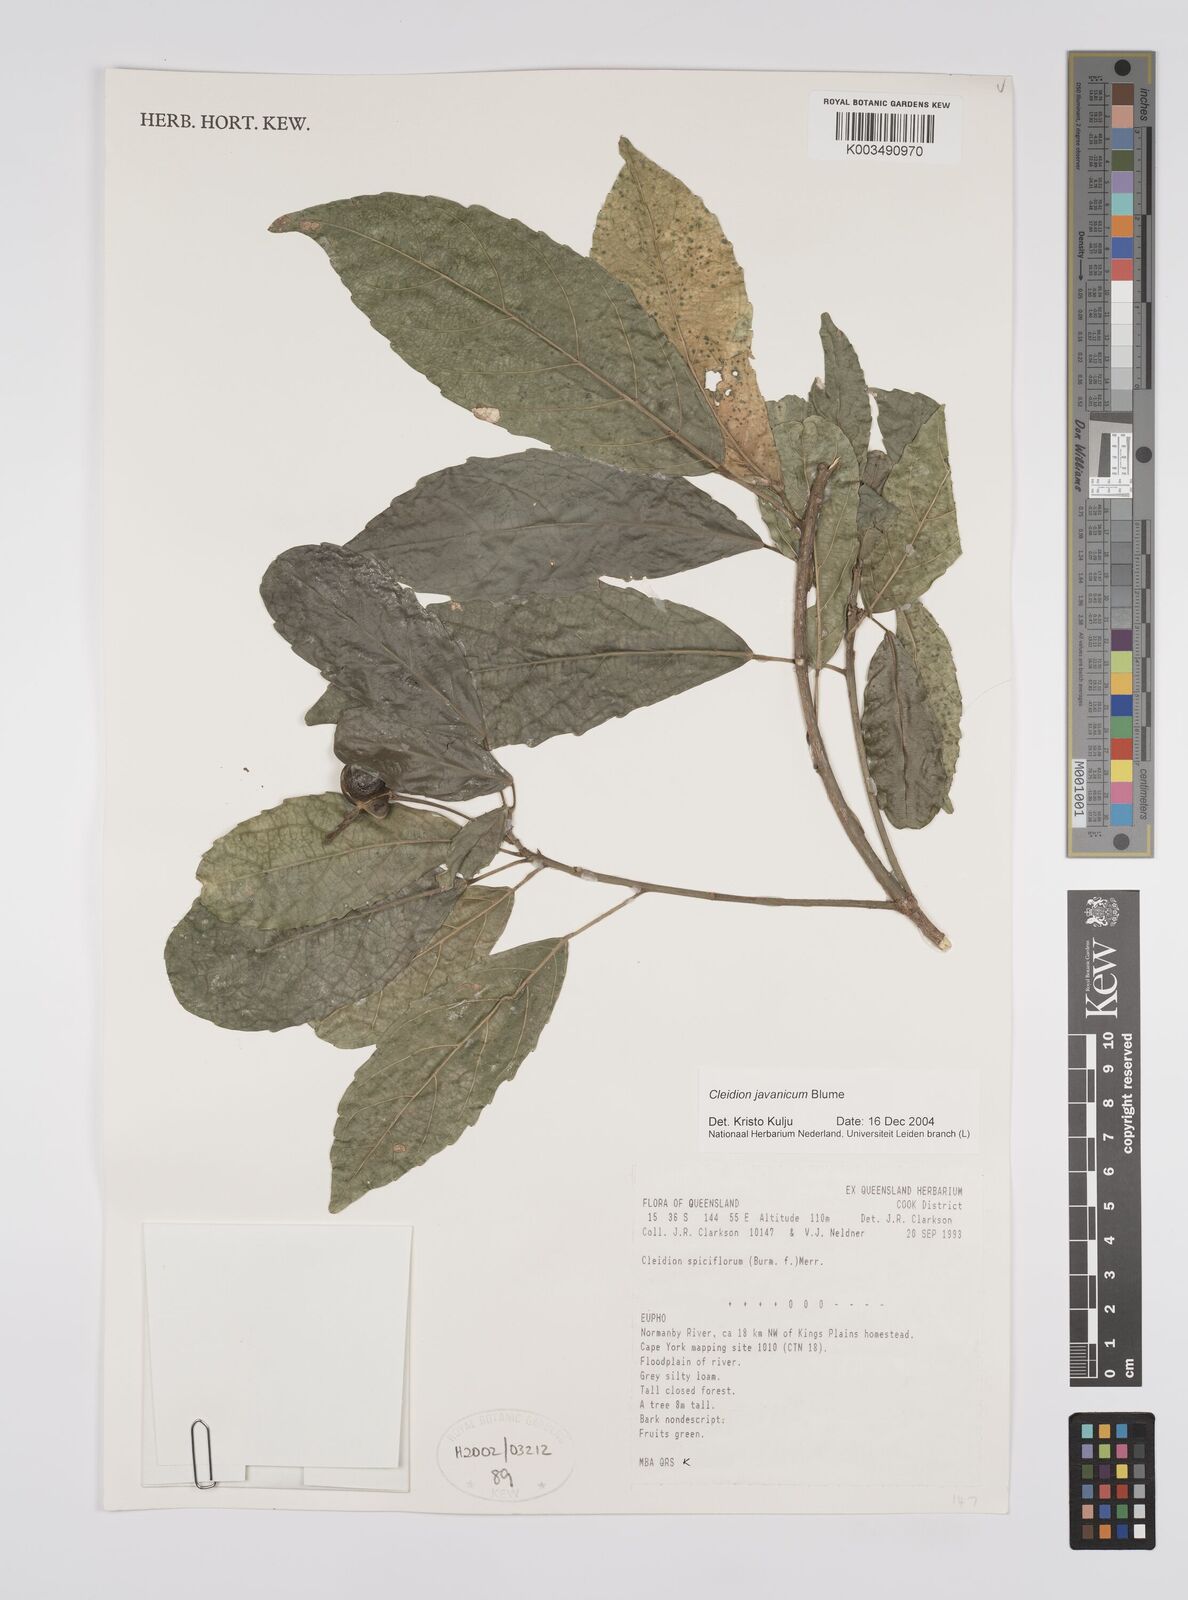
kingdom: Plantae
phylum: Tracheophyta
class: Magnoliopsida
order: Malpighiales
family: Euphorbiaceae
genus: Cleidion
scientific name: Cleidion javanicum
